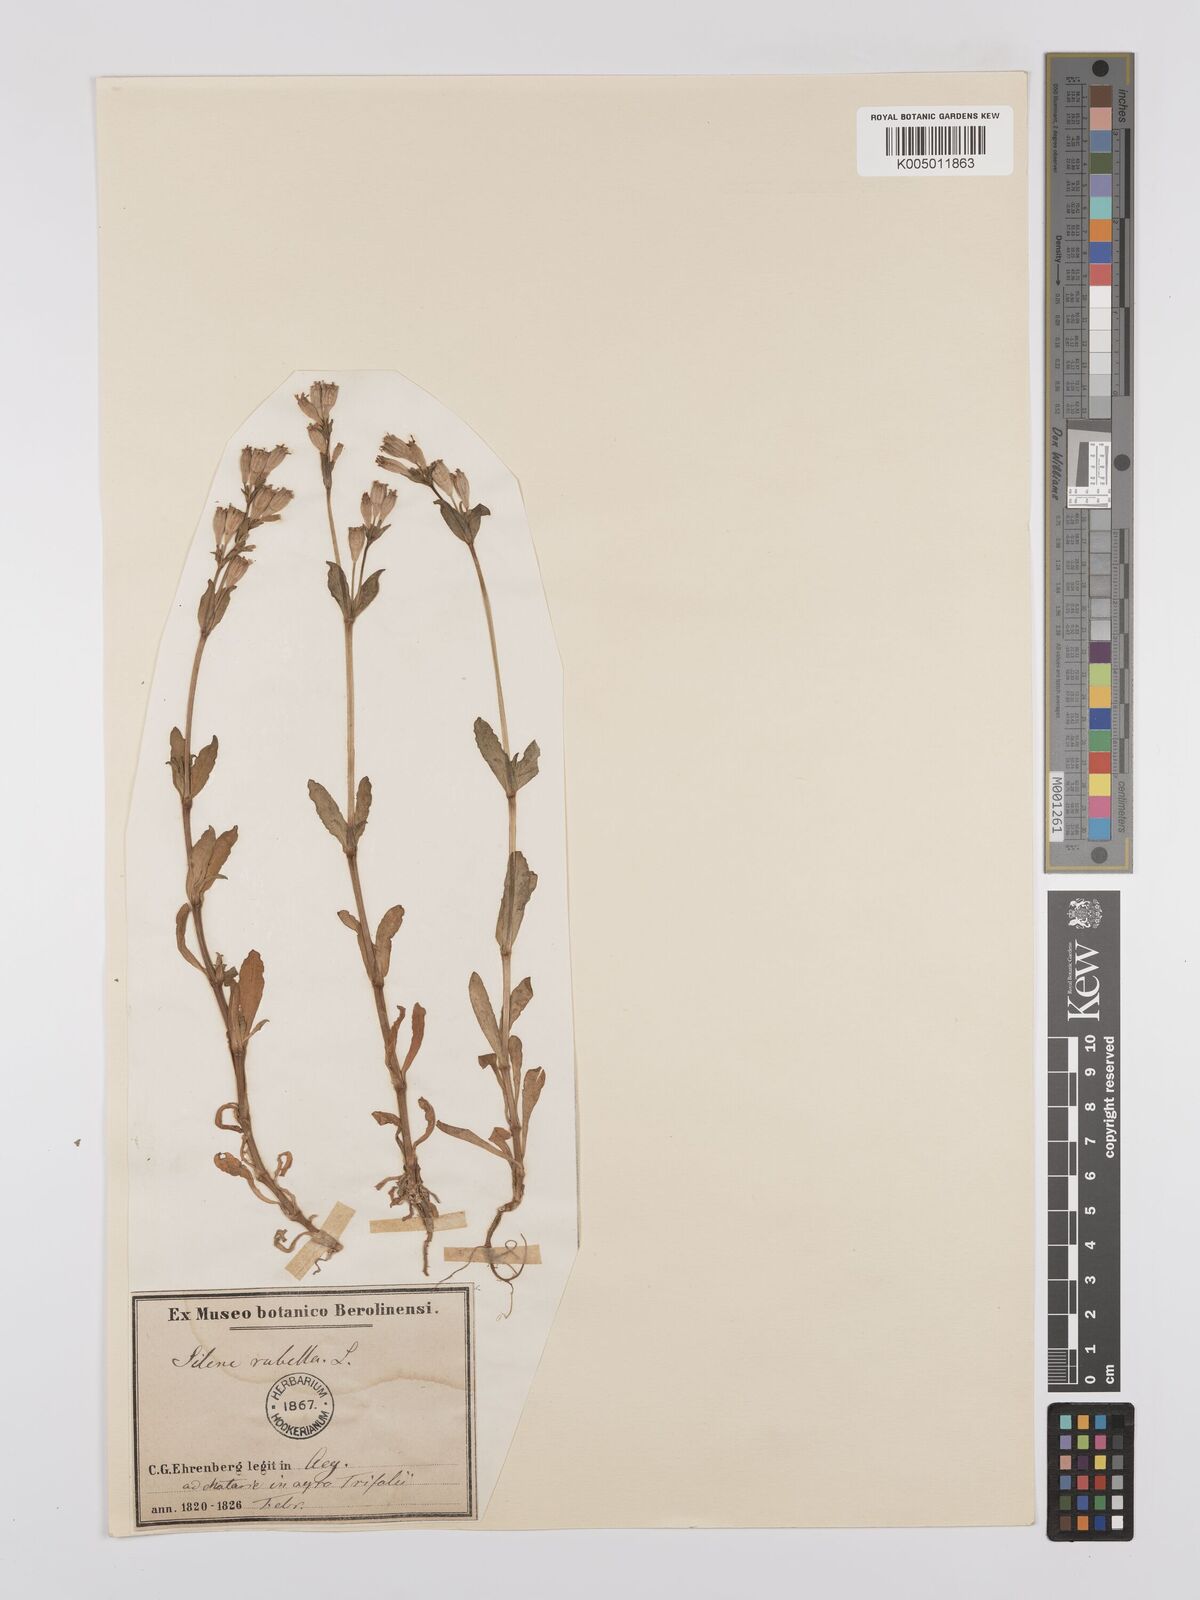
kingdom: Plantae
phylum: Tracheophyta
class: Magnoliopsida
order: Caryophyllales
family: Caryophyllaceae
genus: Silene
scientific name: Silene rubella
